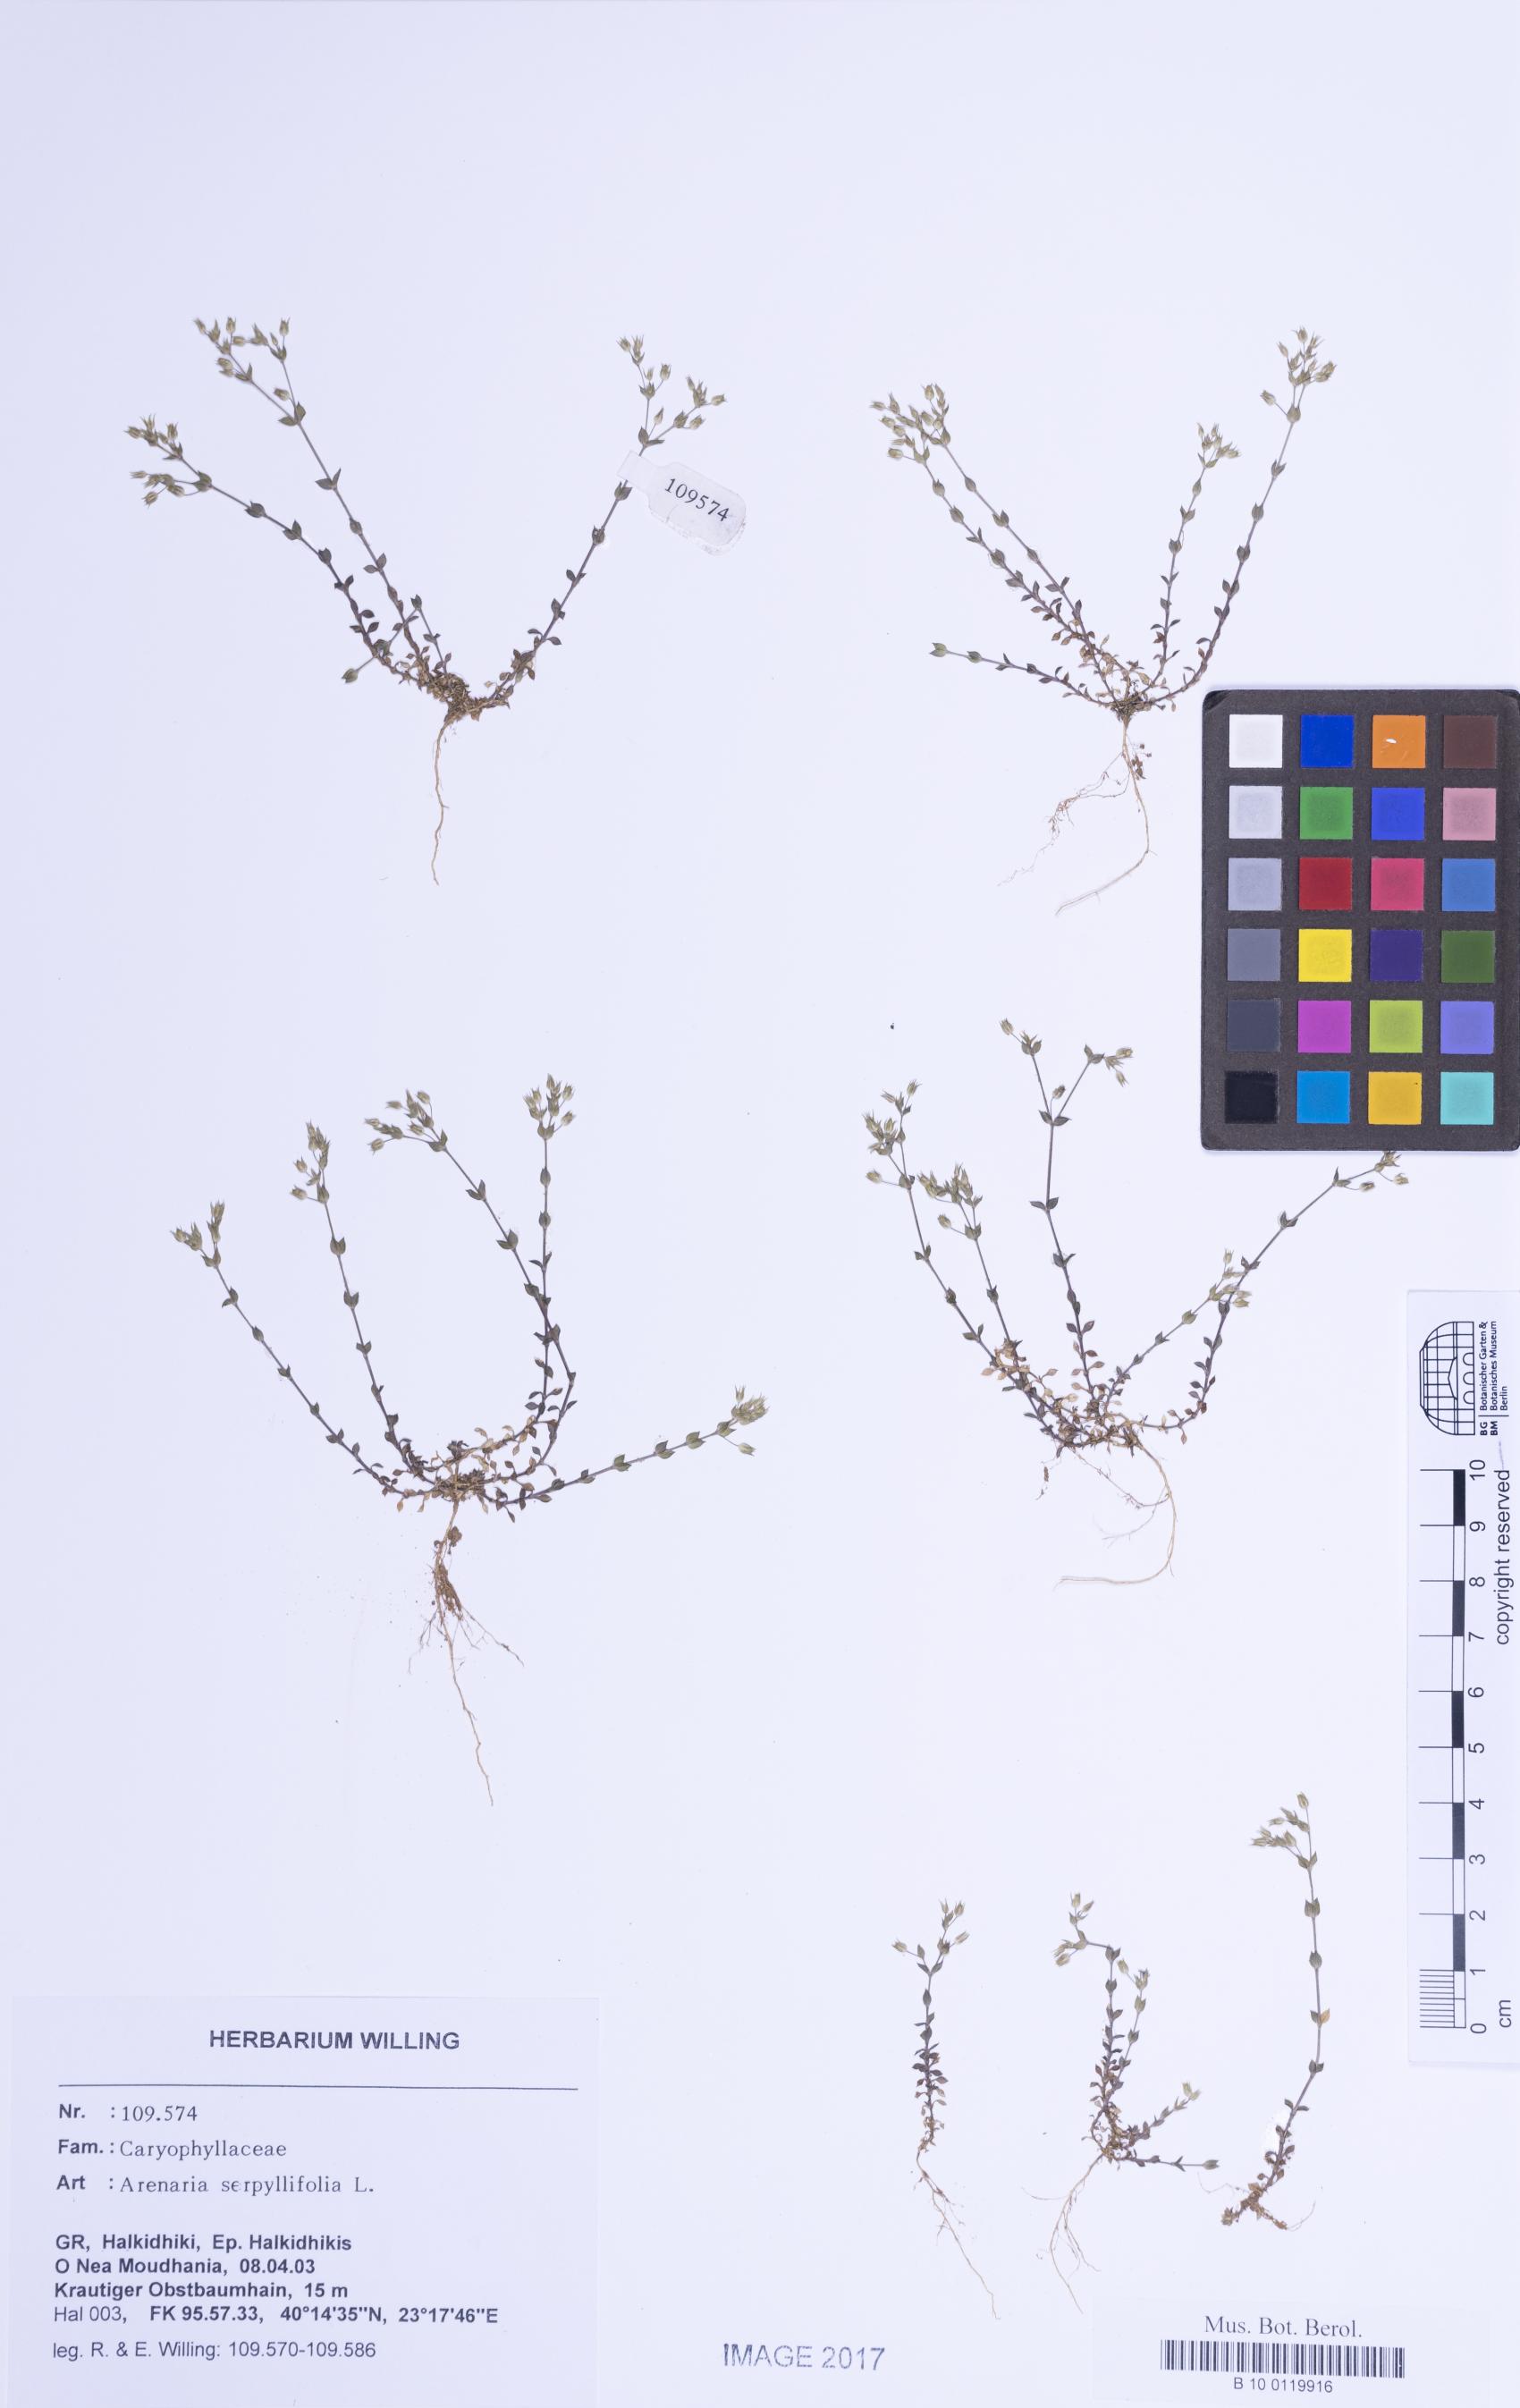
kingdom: Plantae
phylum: Tracheophyta
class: Magnoliopsida
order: Caryophyllales
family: Caryophyllaceae
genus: Arenaria
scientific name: Arenaria serpyllifolia
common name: Thyme-leaved sandwort
